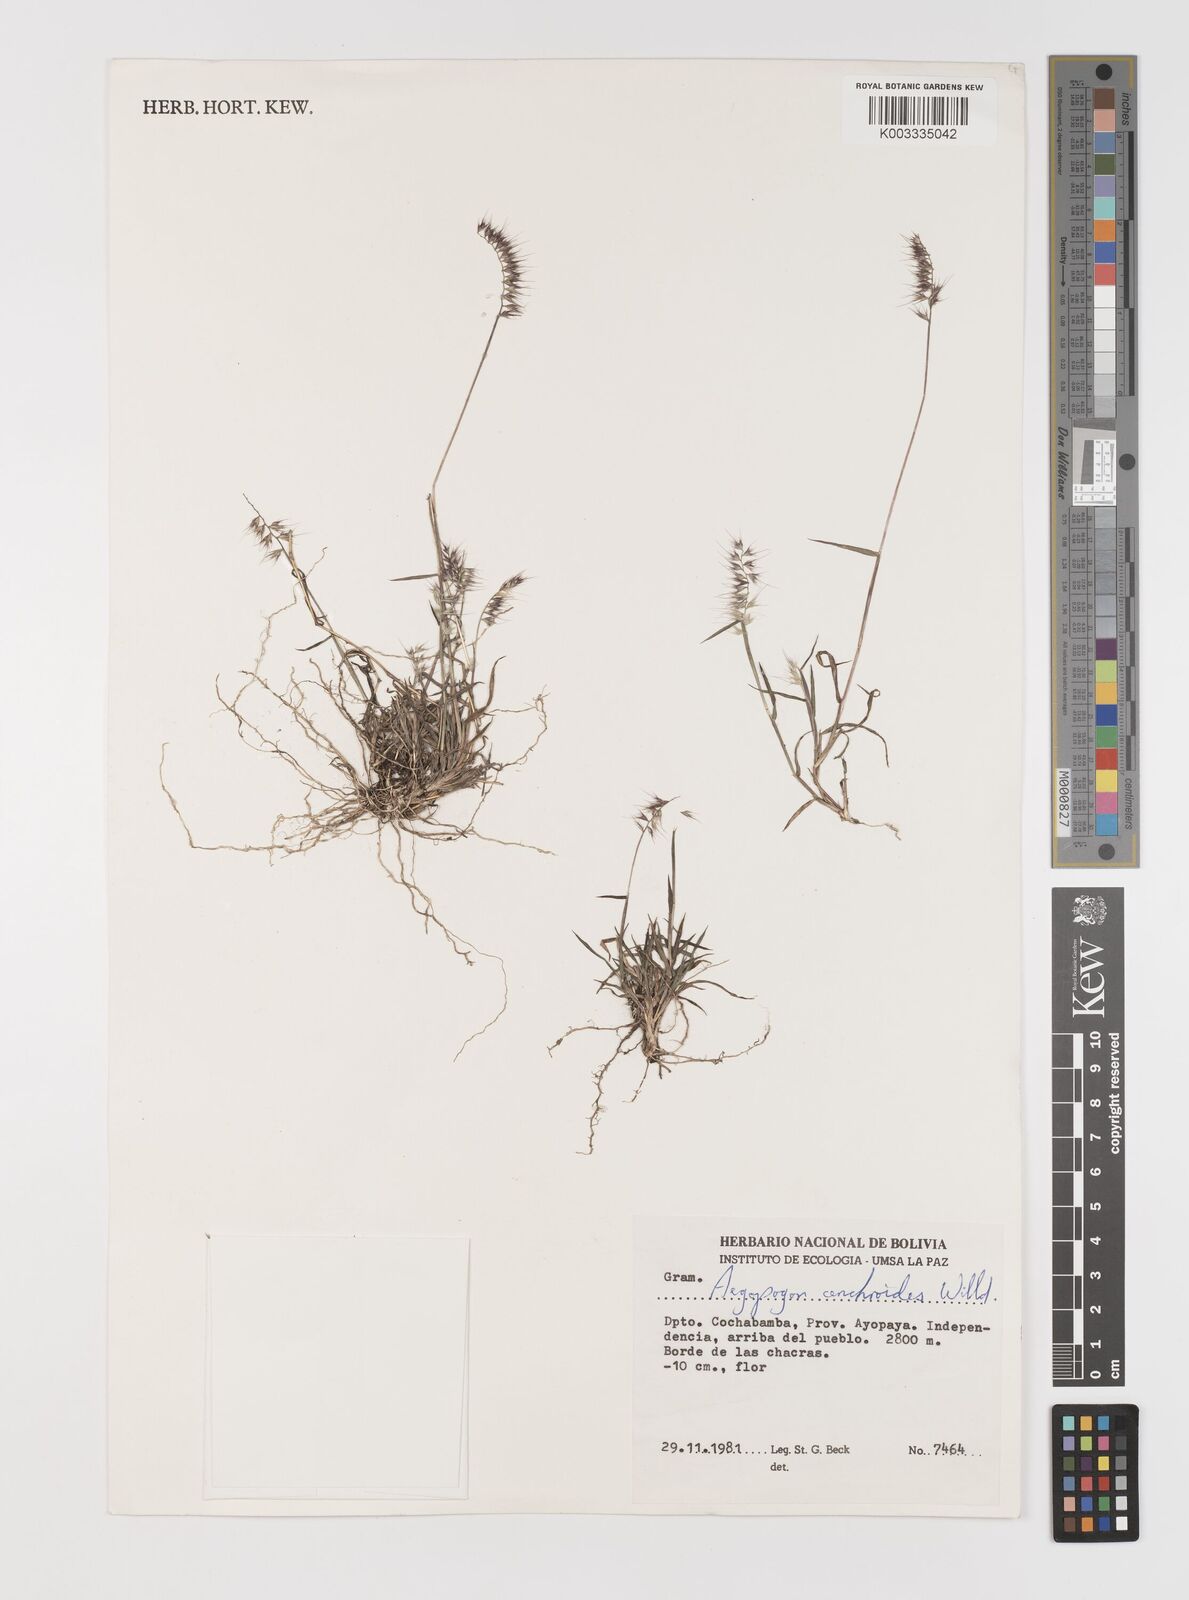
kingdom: Plantae
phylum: Tracheophyta
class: Liliopsida
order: Poales
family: Poaceae
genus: Muhlenbergia
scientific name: Muhlenbergia cenchroides
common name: Relaxgrass
